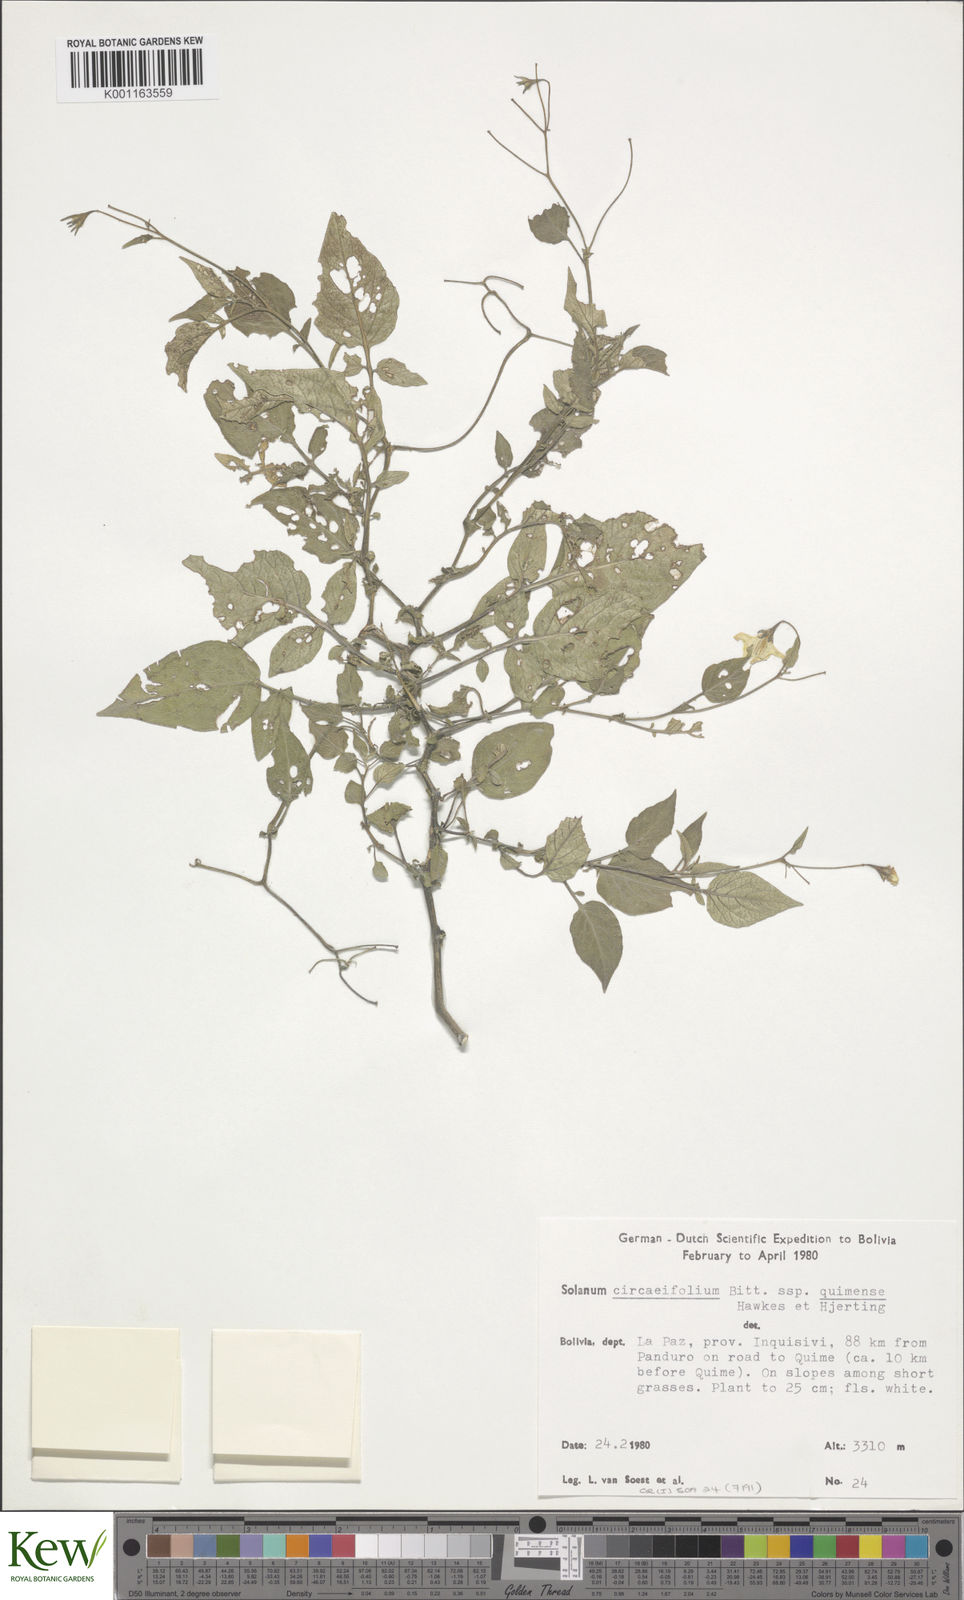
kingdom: Plantae
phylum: Tracheophyta
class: Magnoliopsida
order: Solanales
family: Solanaceae
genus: Solanum
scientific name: Solanum stipuloideum
